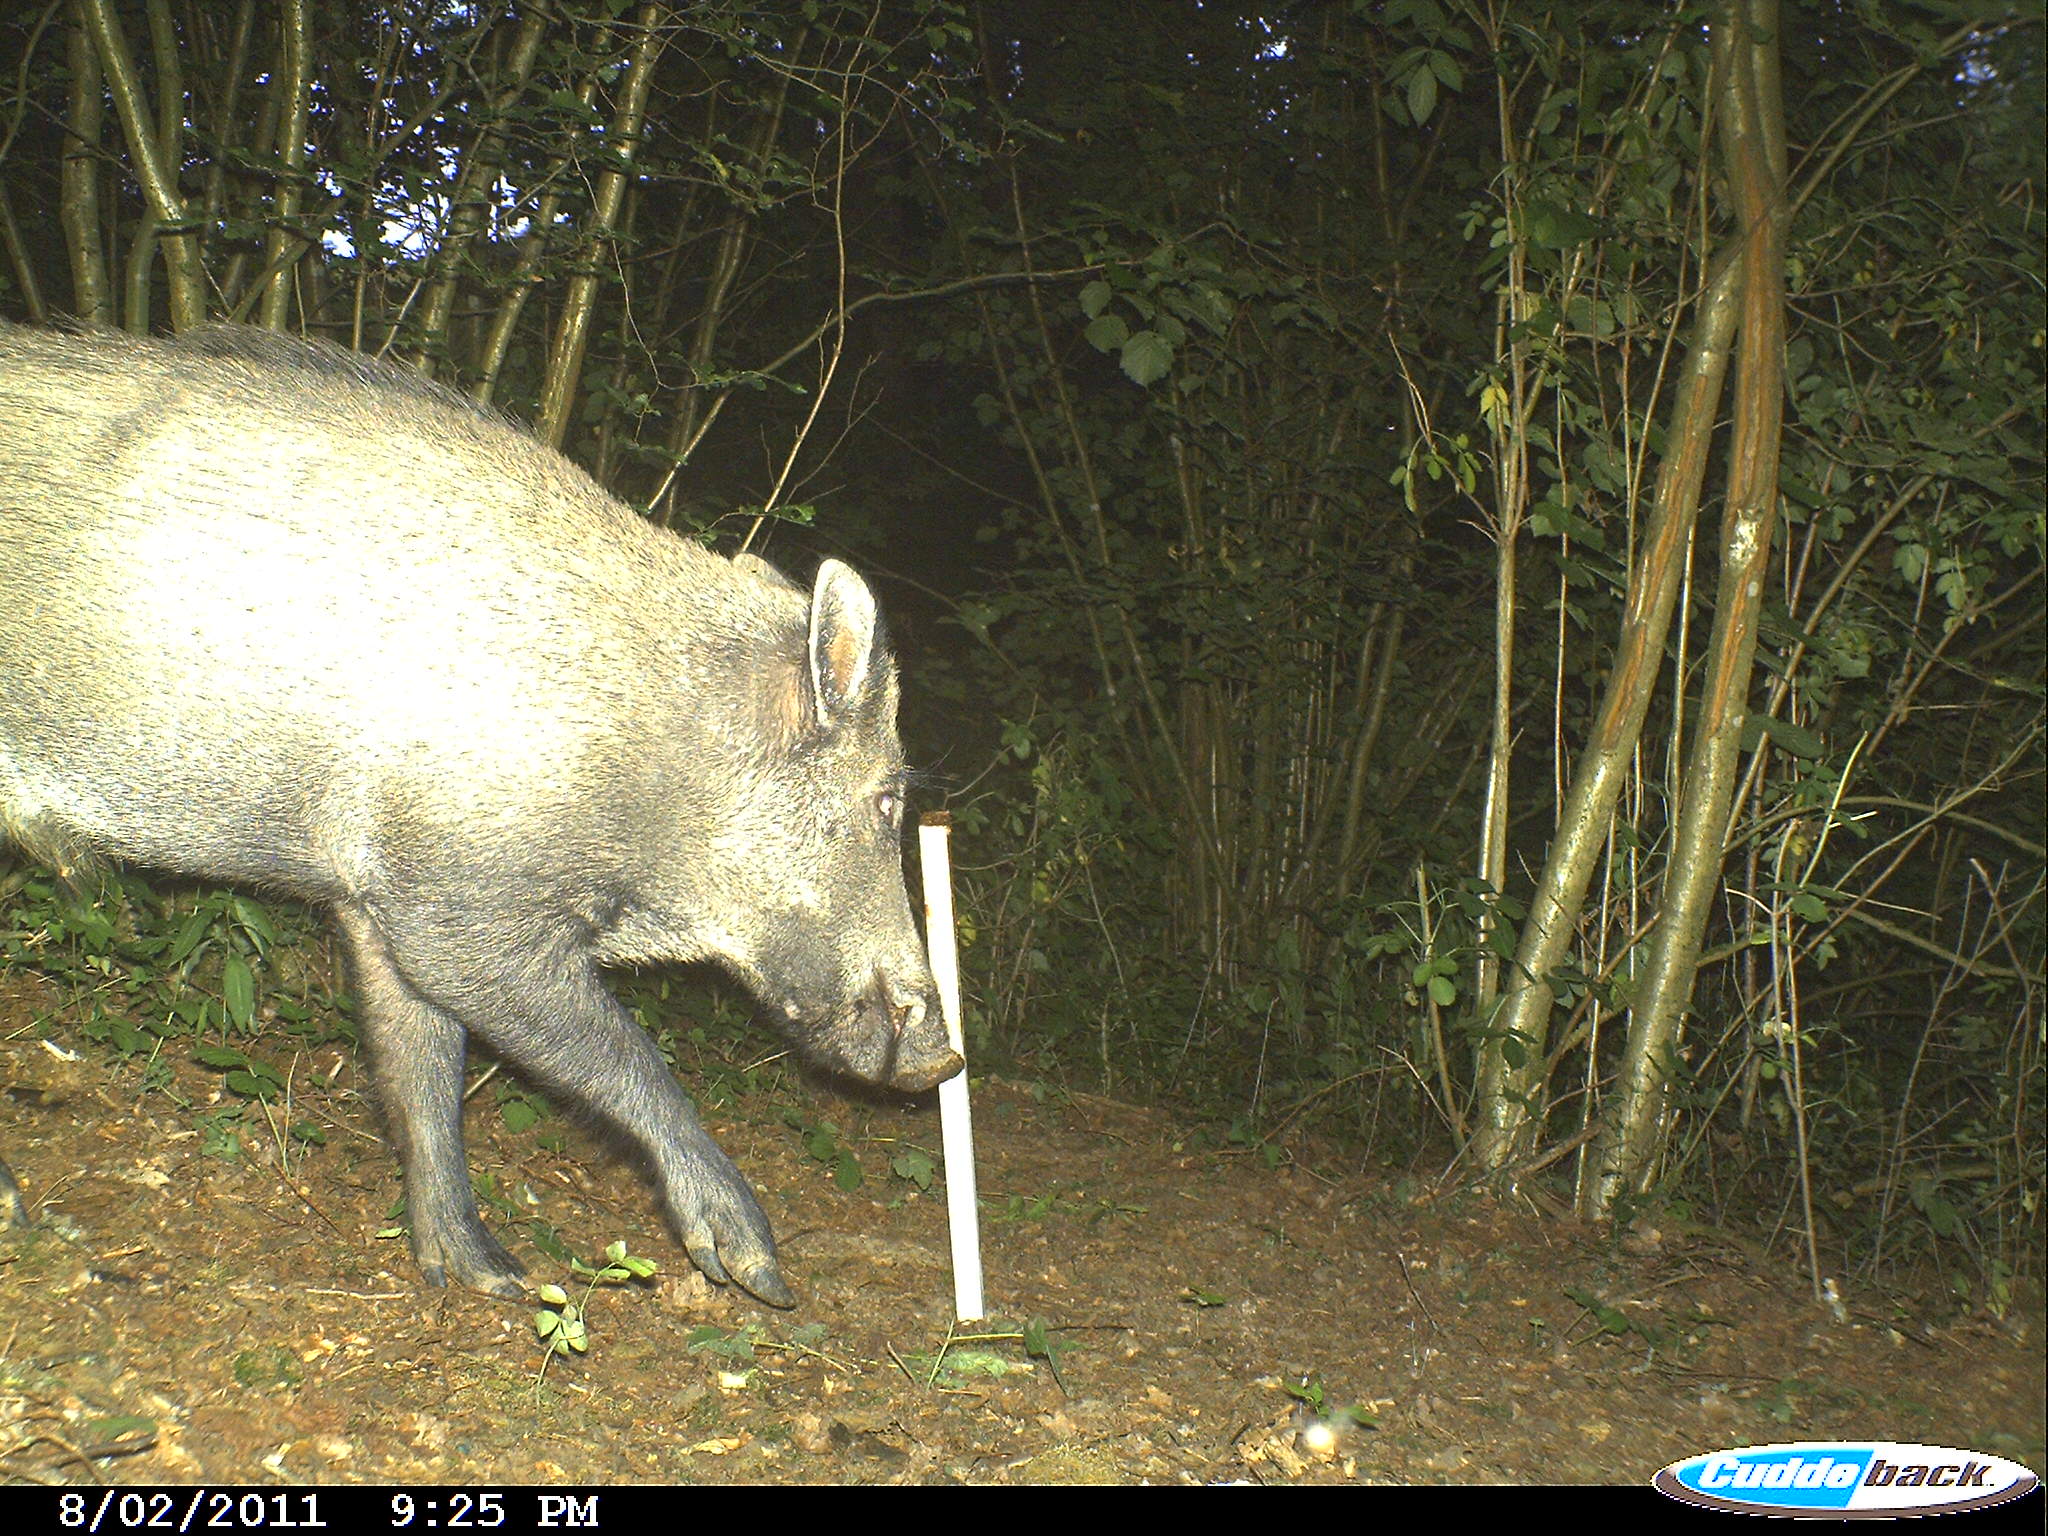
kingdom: Animalia
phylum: Chordata
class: Mammalia
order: Artiodactyla
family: Suidae
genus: Sus
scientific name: Sus scrofa
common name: Wild boar
